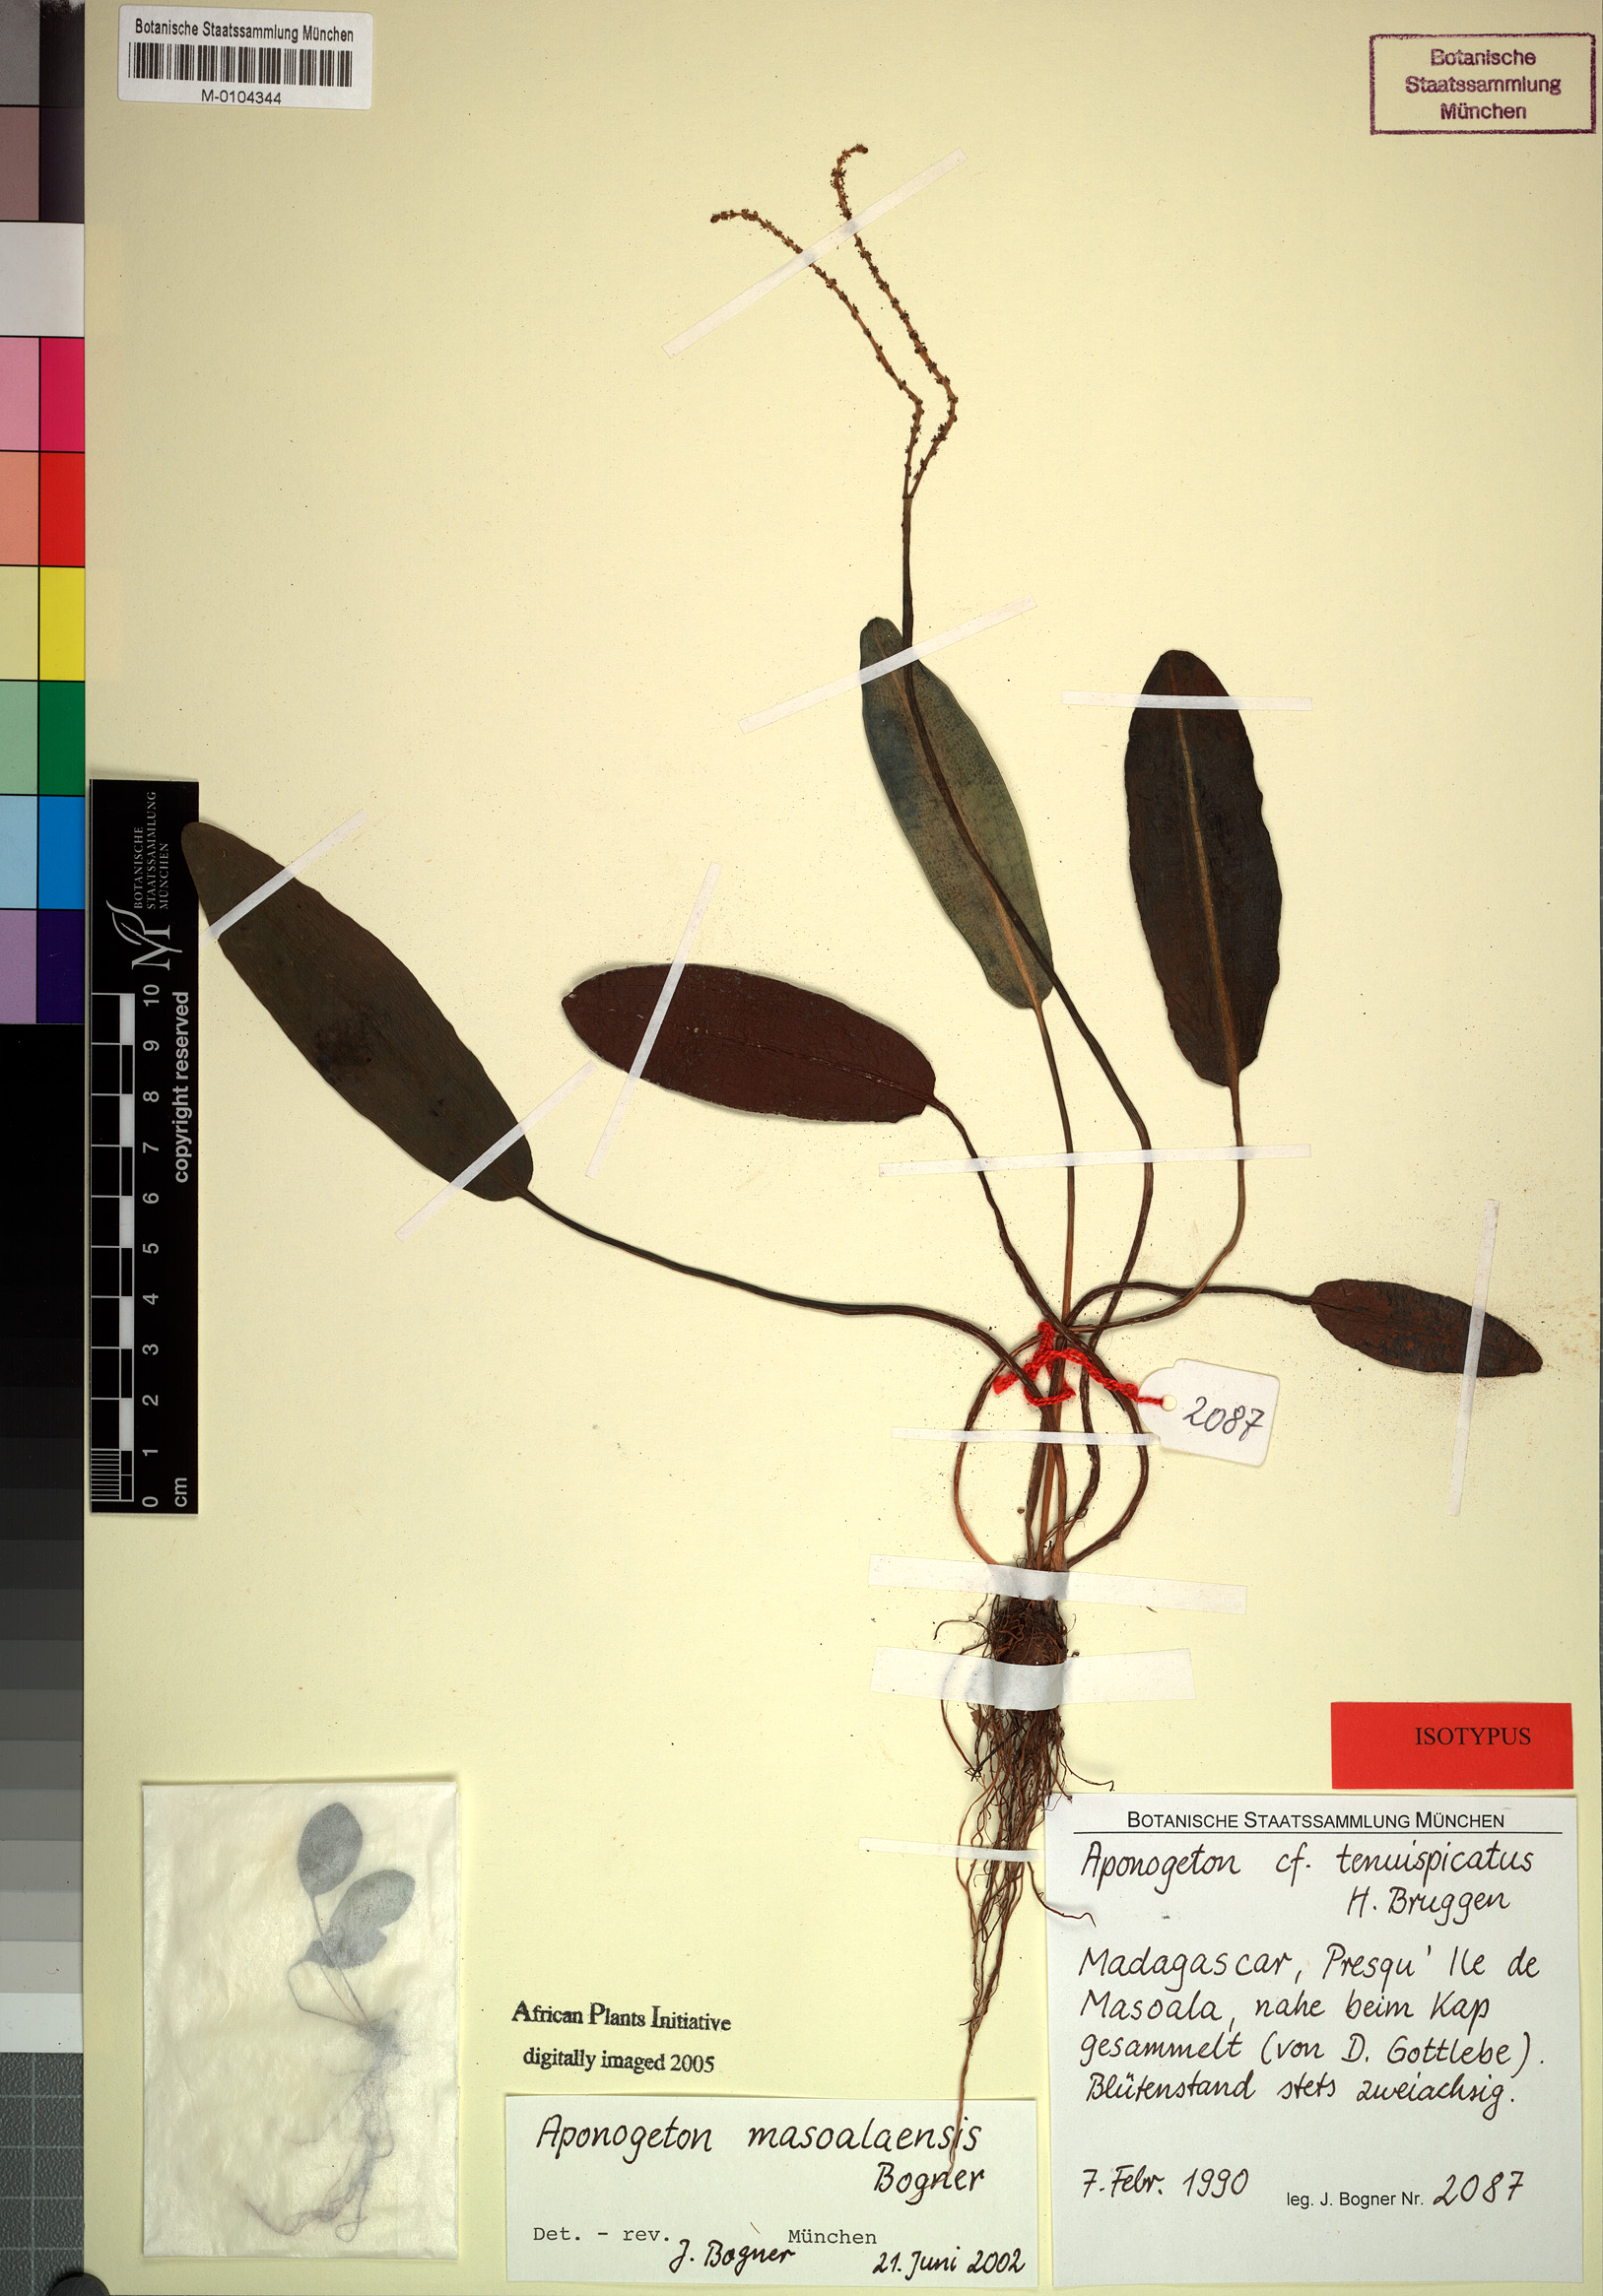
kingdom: Plantae
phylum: Tracheophyta
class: Liliopsida
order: Alismatales
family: Aponogetonaceae
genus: Aponogeton
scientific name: Aponogeton masoalaensis
